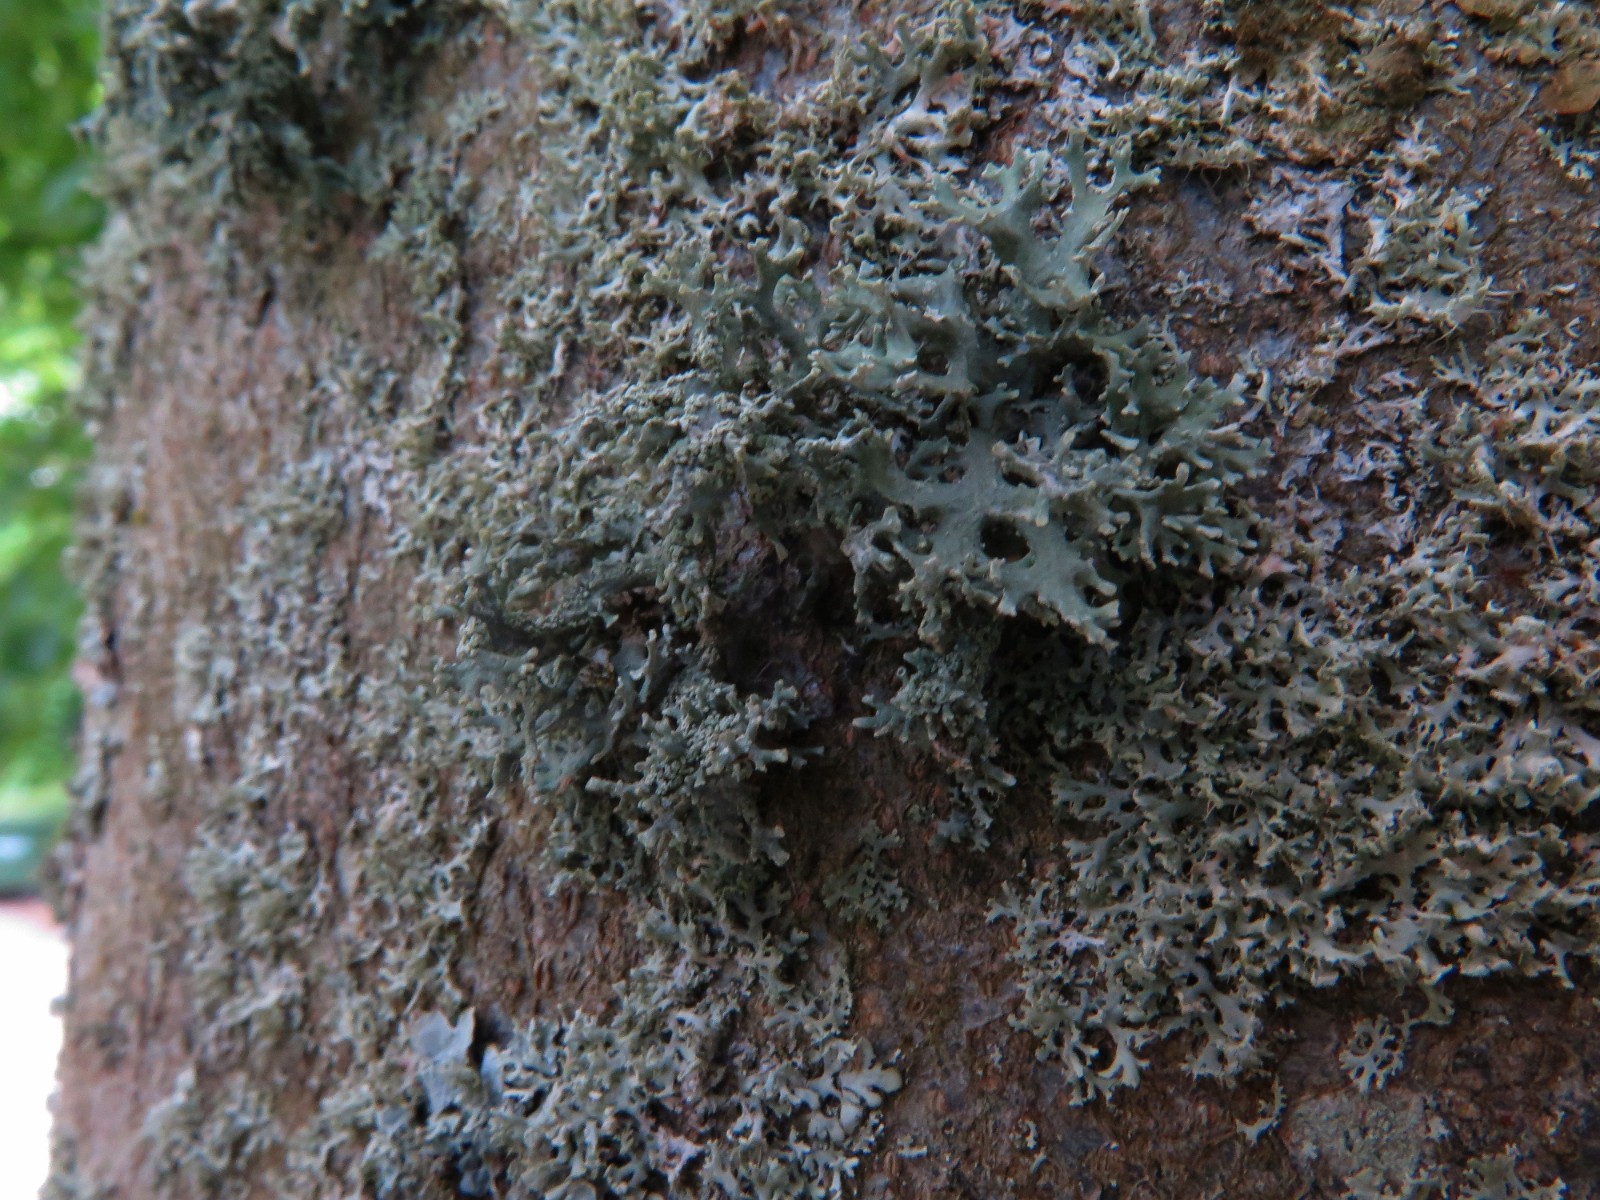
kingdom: Fungi
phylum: Ascomycota
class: Lecanoromycetes
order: Lecanorales
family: Parmeliaceae
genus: Evernia
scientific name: Evernia prunastri
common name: almindelig slåenlav
